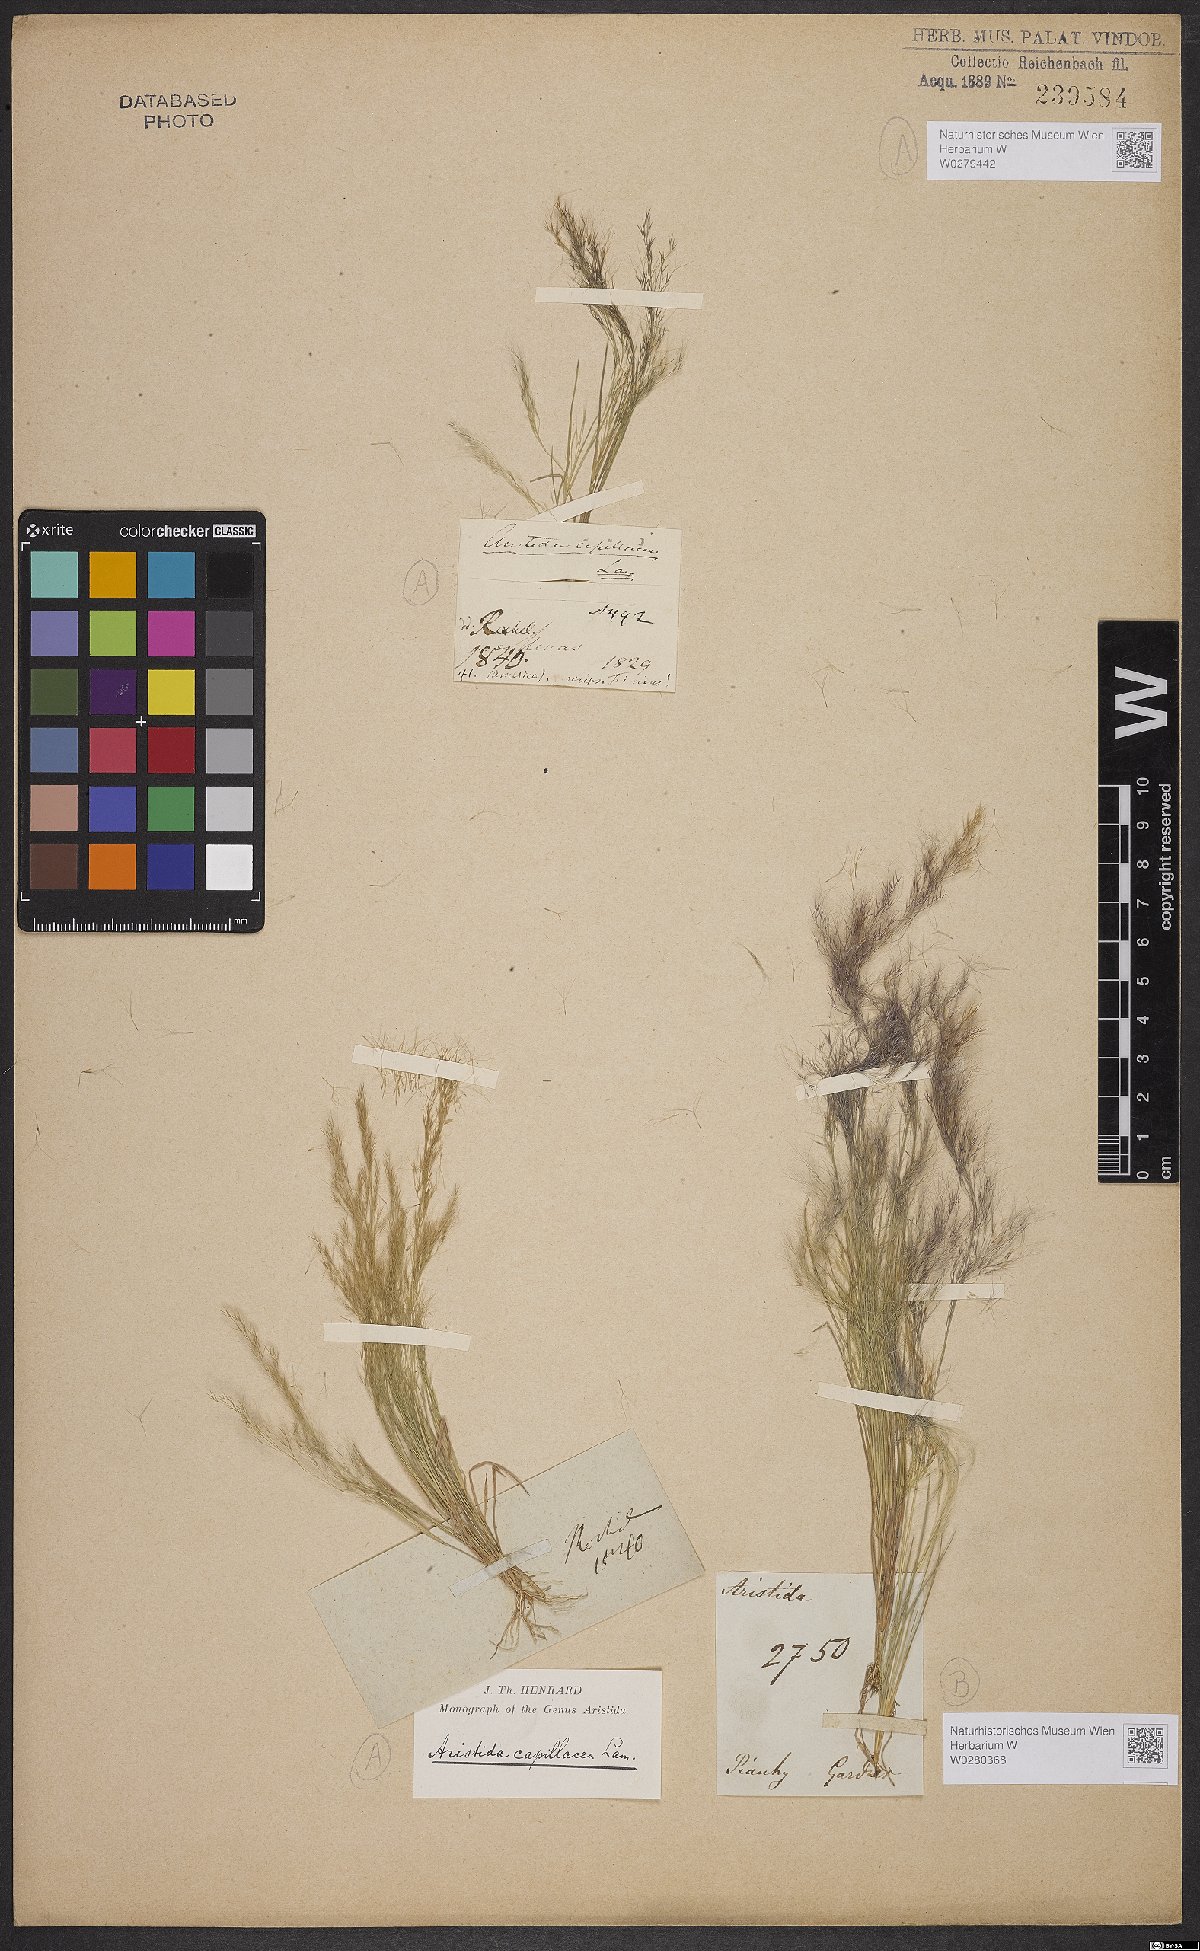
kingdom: Plantae
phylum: Tracheophyta
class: Liliopsida
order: Poales
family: Poaceae
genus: Aristida
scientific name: Aristida capillacea
